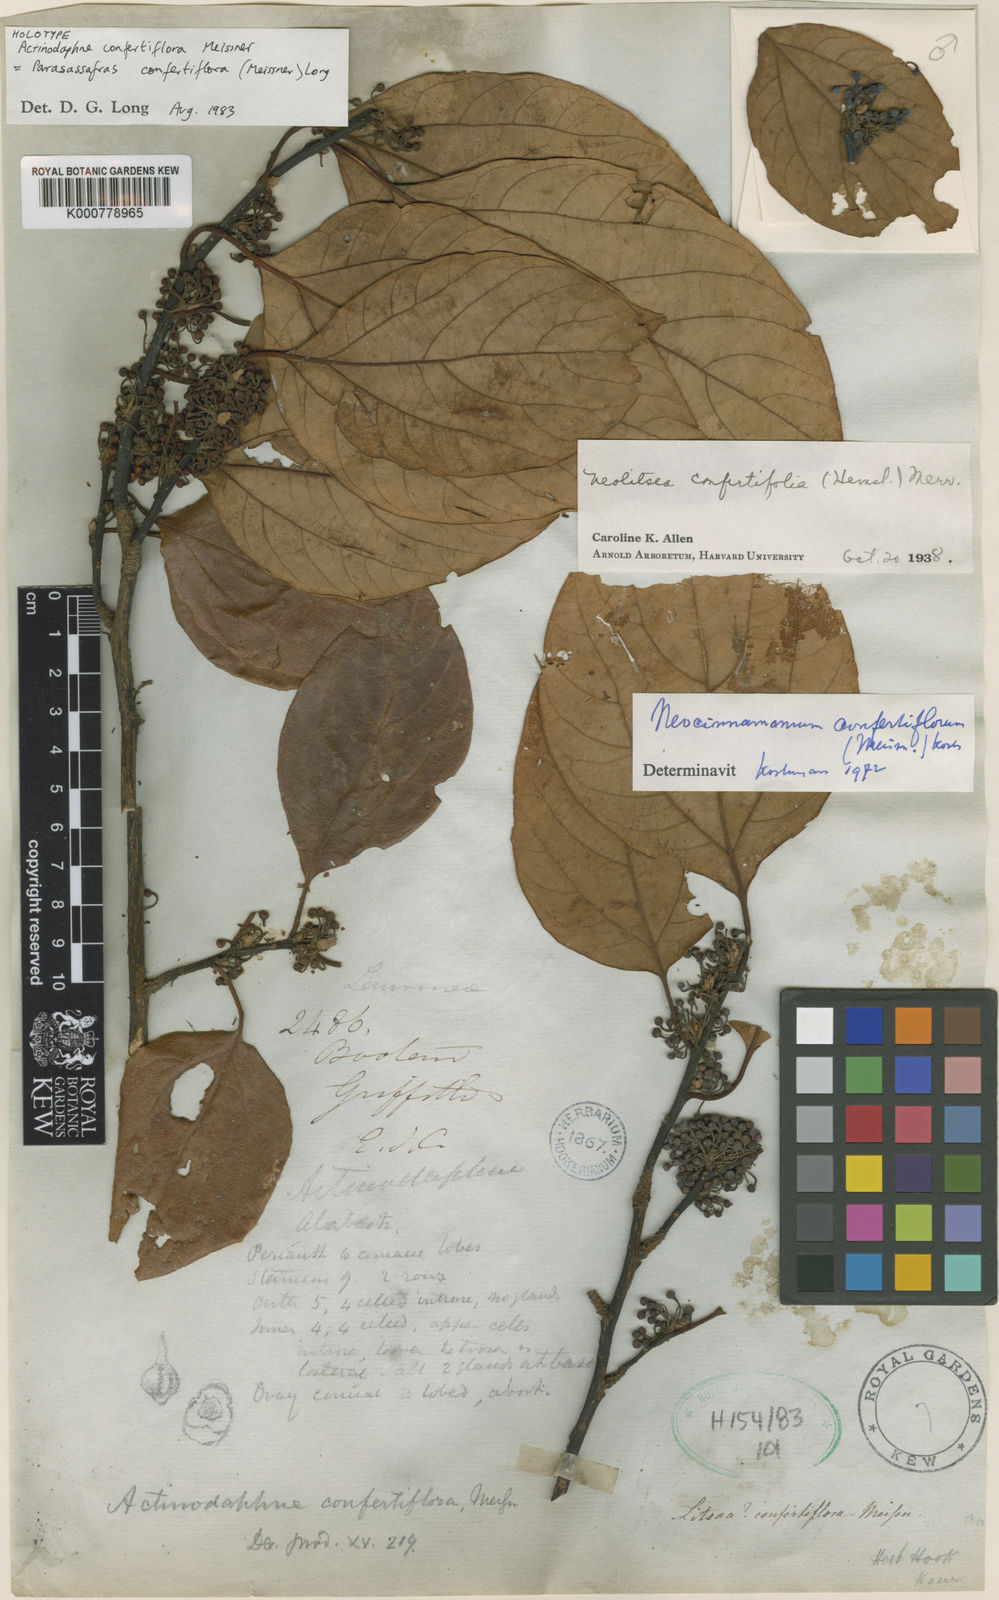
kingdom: Plantae
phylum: Tracheophyta
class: Magnoliopsida
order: Laurales
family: Lauraceae
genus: Parasassafras
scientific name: Parasassafras confertiflora
